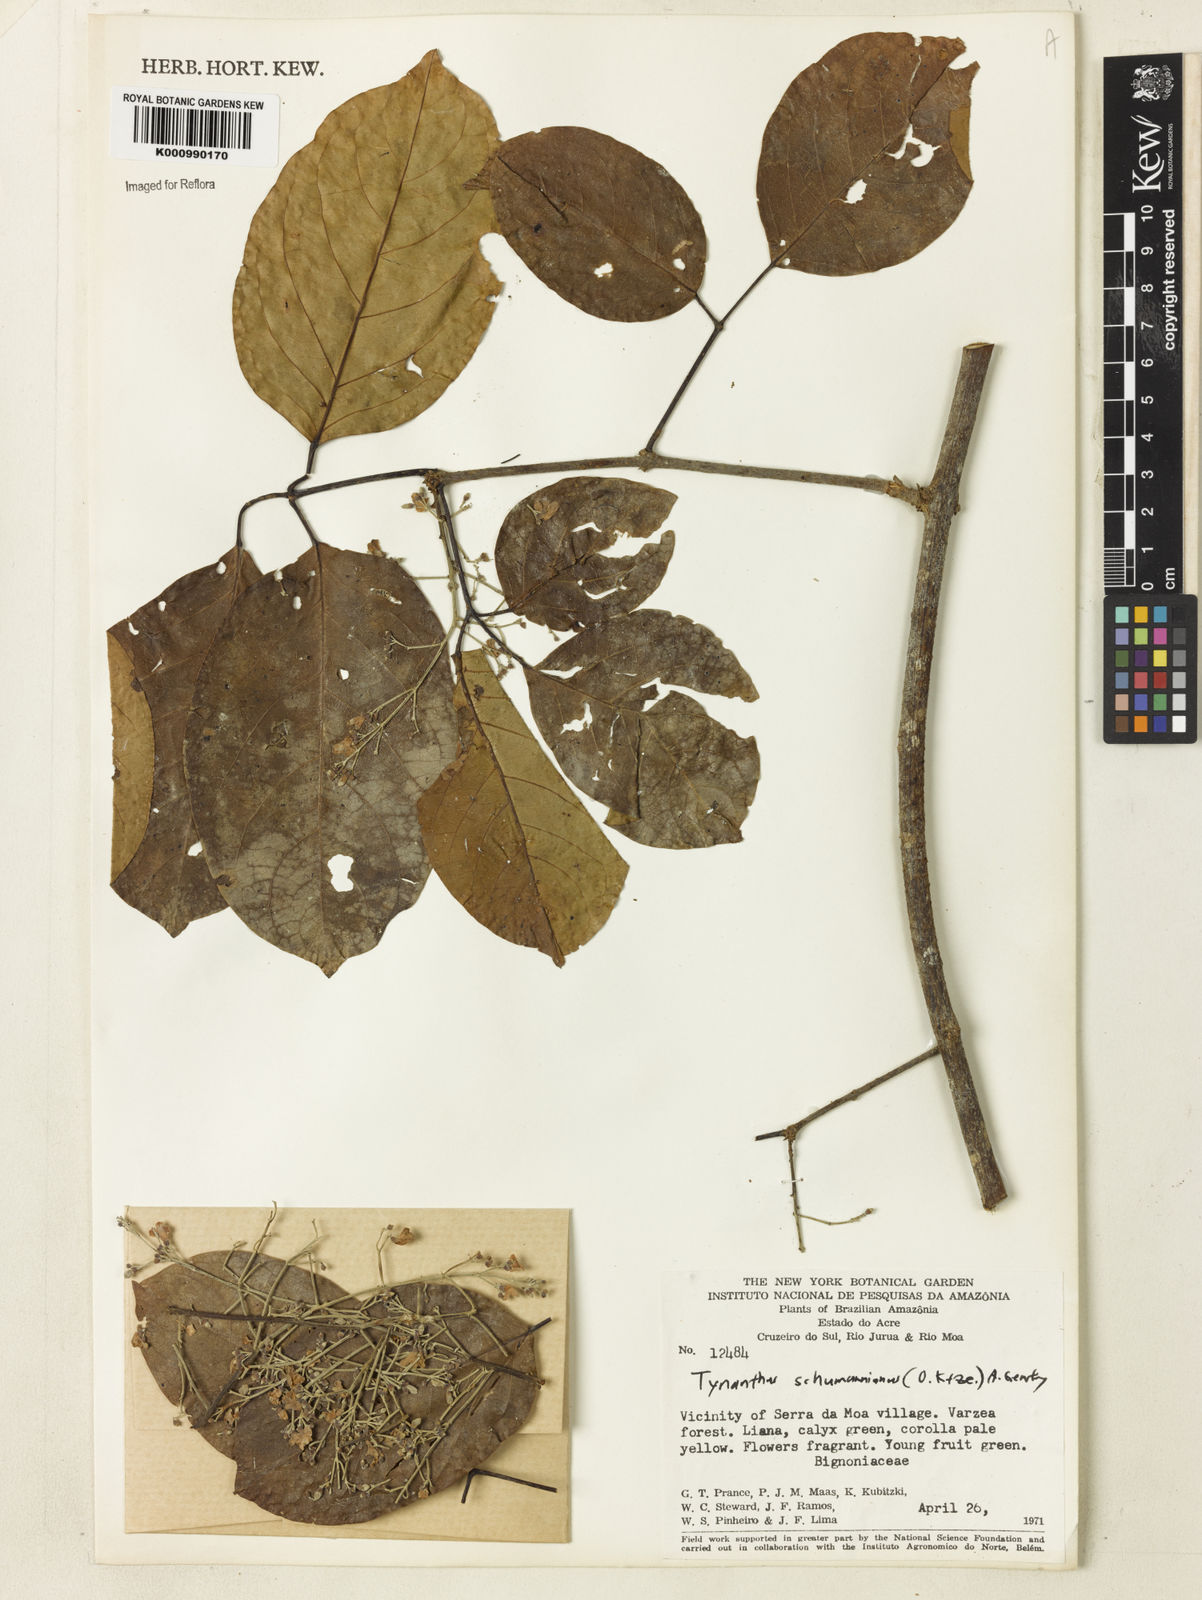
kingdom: Plantae
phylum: Tracheophyta
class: Magnoliopsida
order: Lamiales
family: Bignoniaceae
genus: Tynanthus
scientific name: Tynanthus schumannianus
